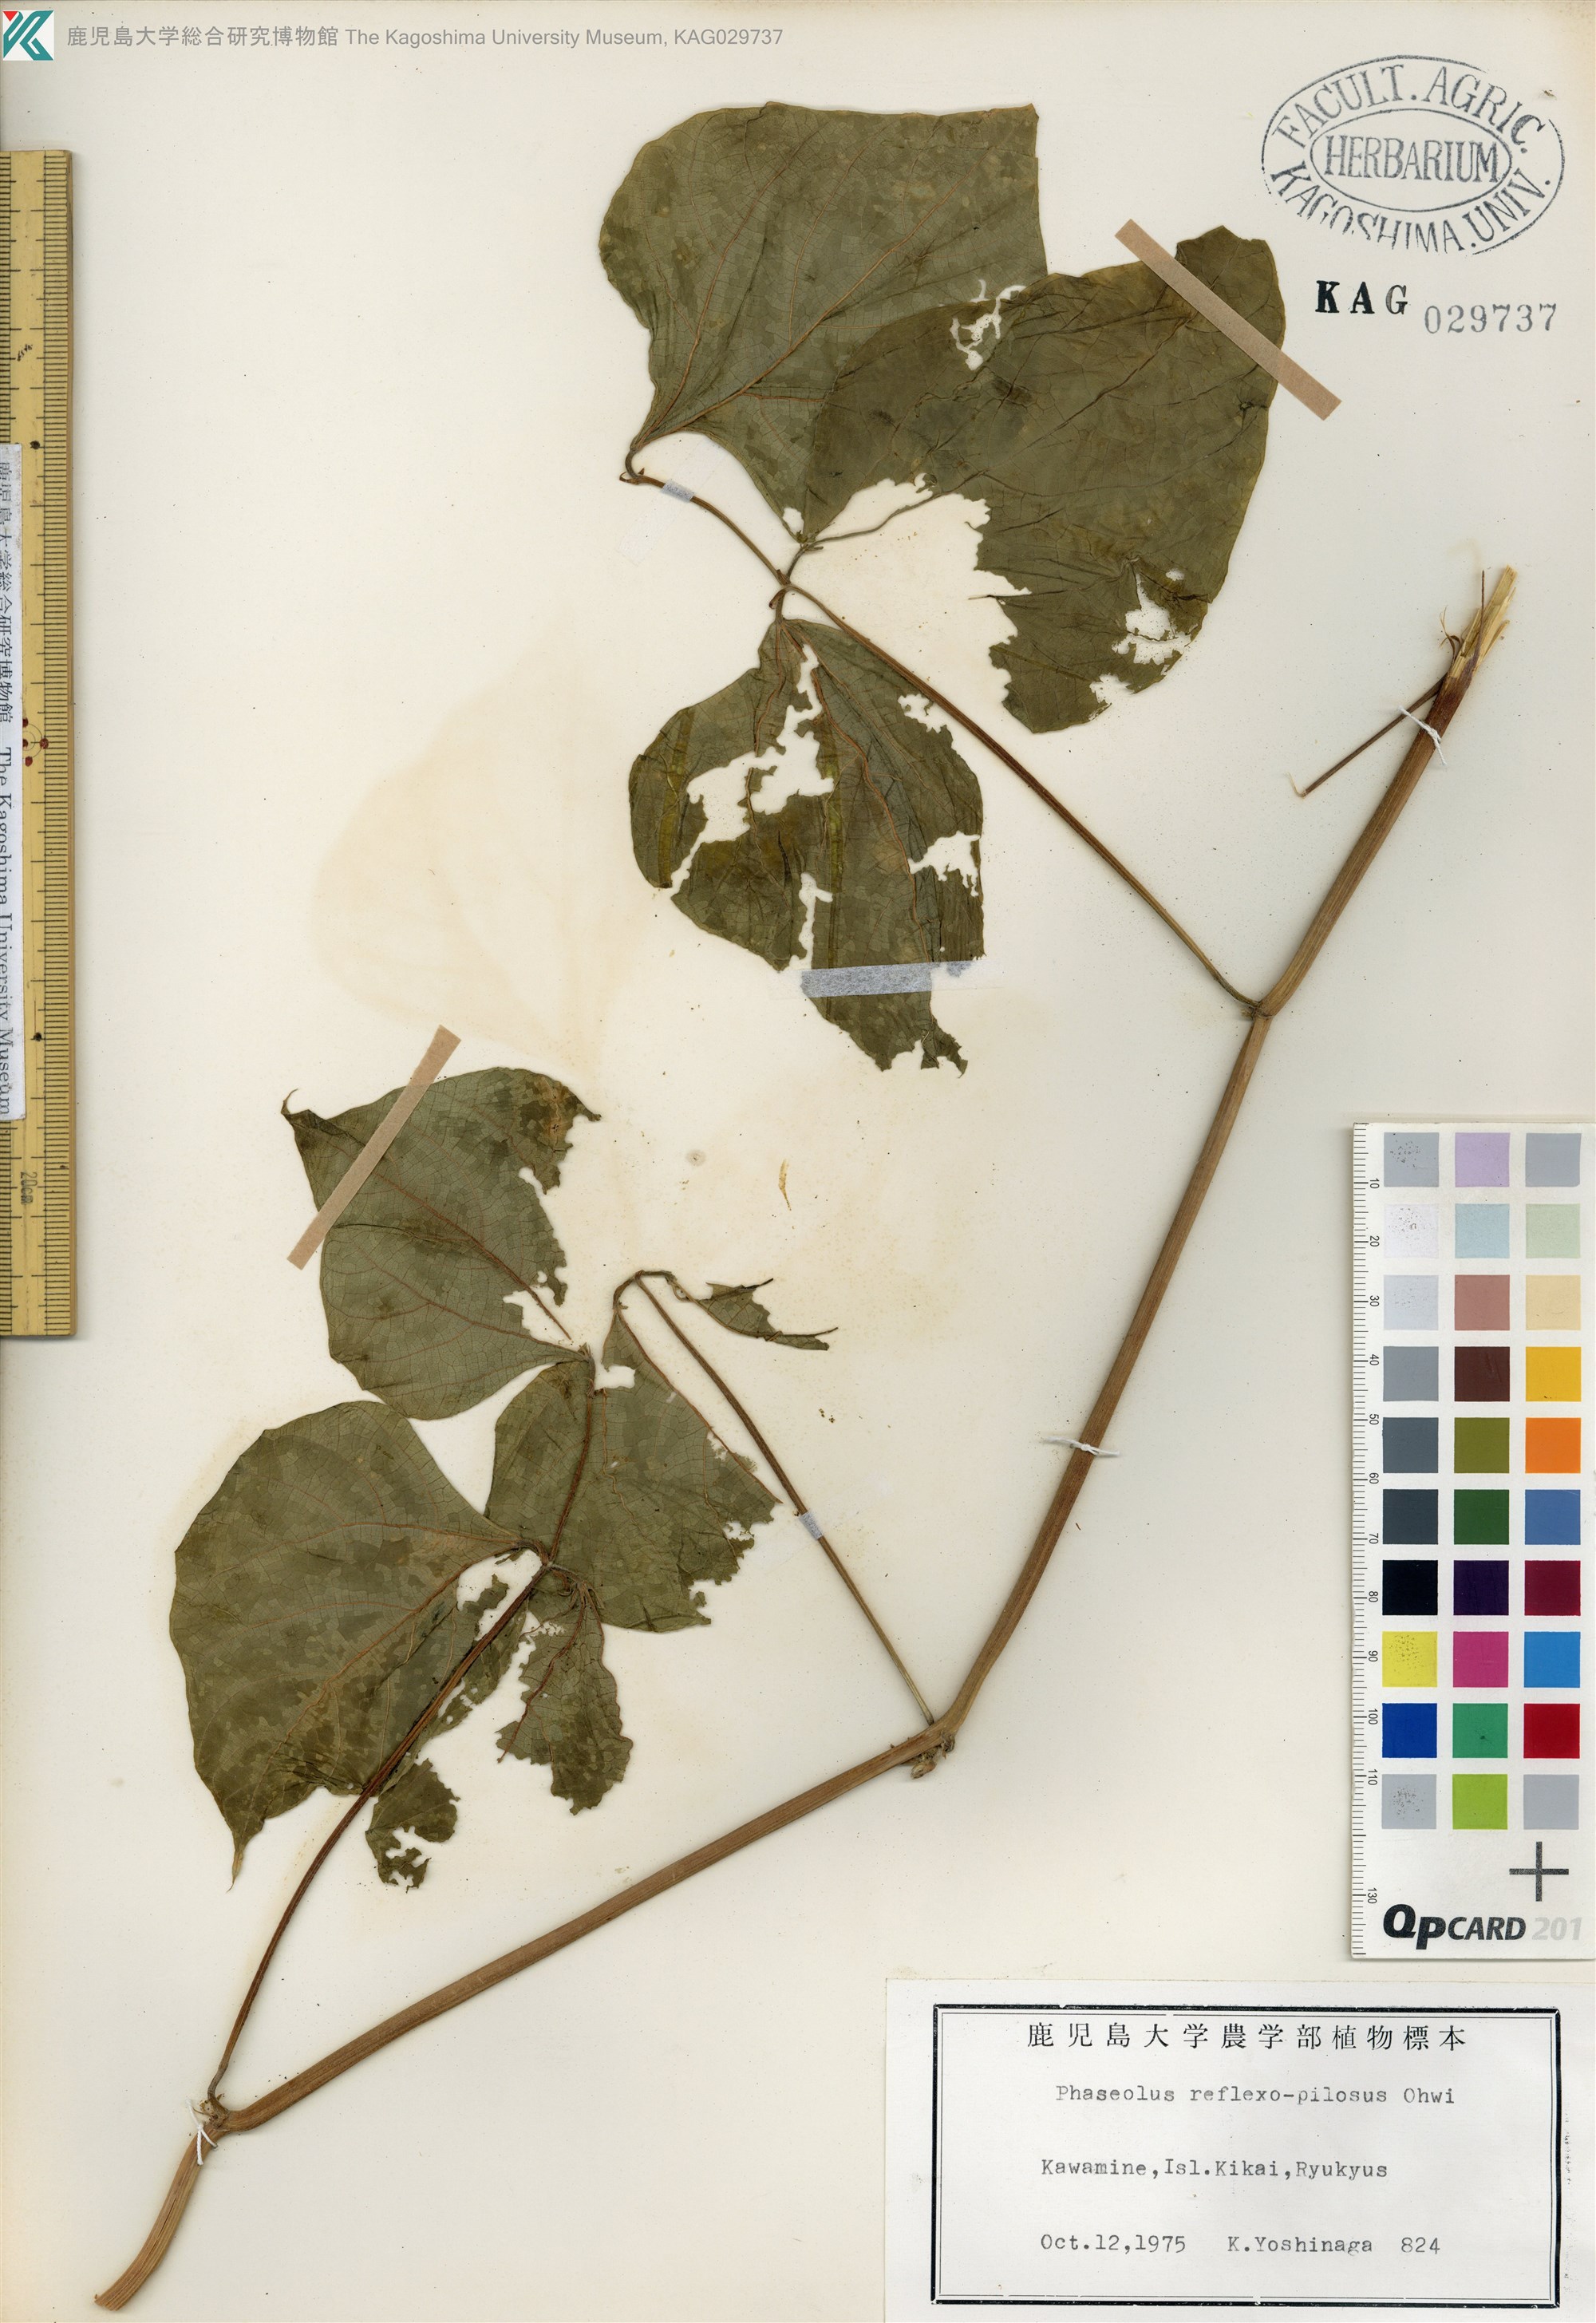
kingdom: Plantae
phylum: Tracheophyta
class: Magnoliopsida
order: Fabales
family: Fabaceae
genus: Vigna
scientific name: Vigna reflexopilosa
